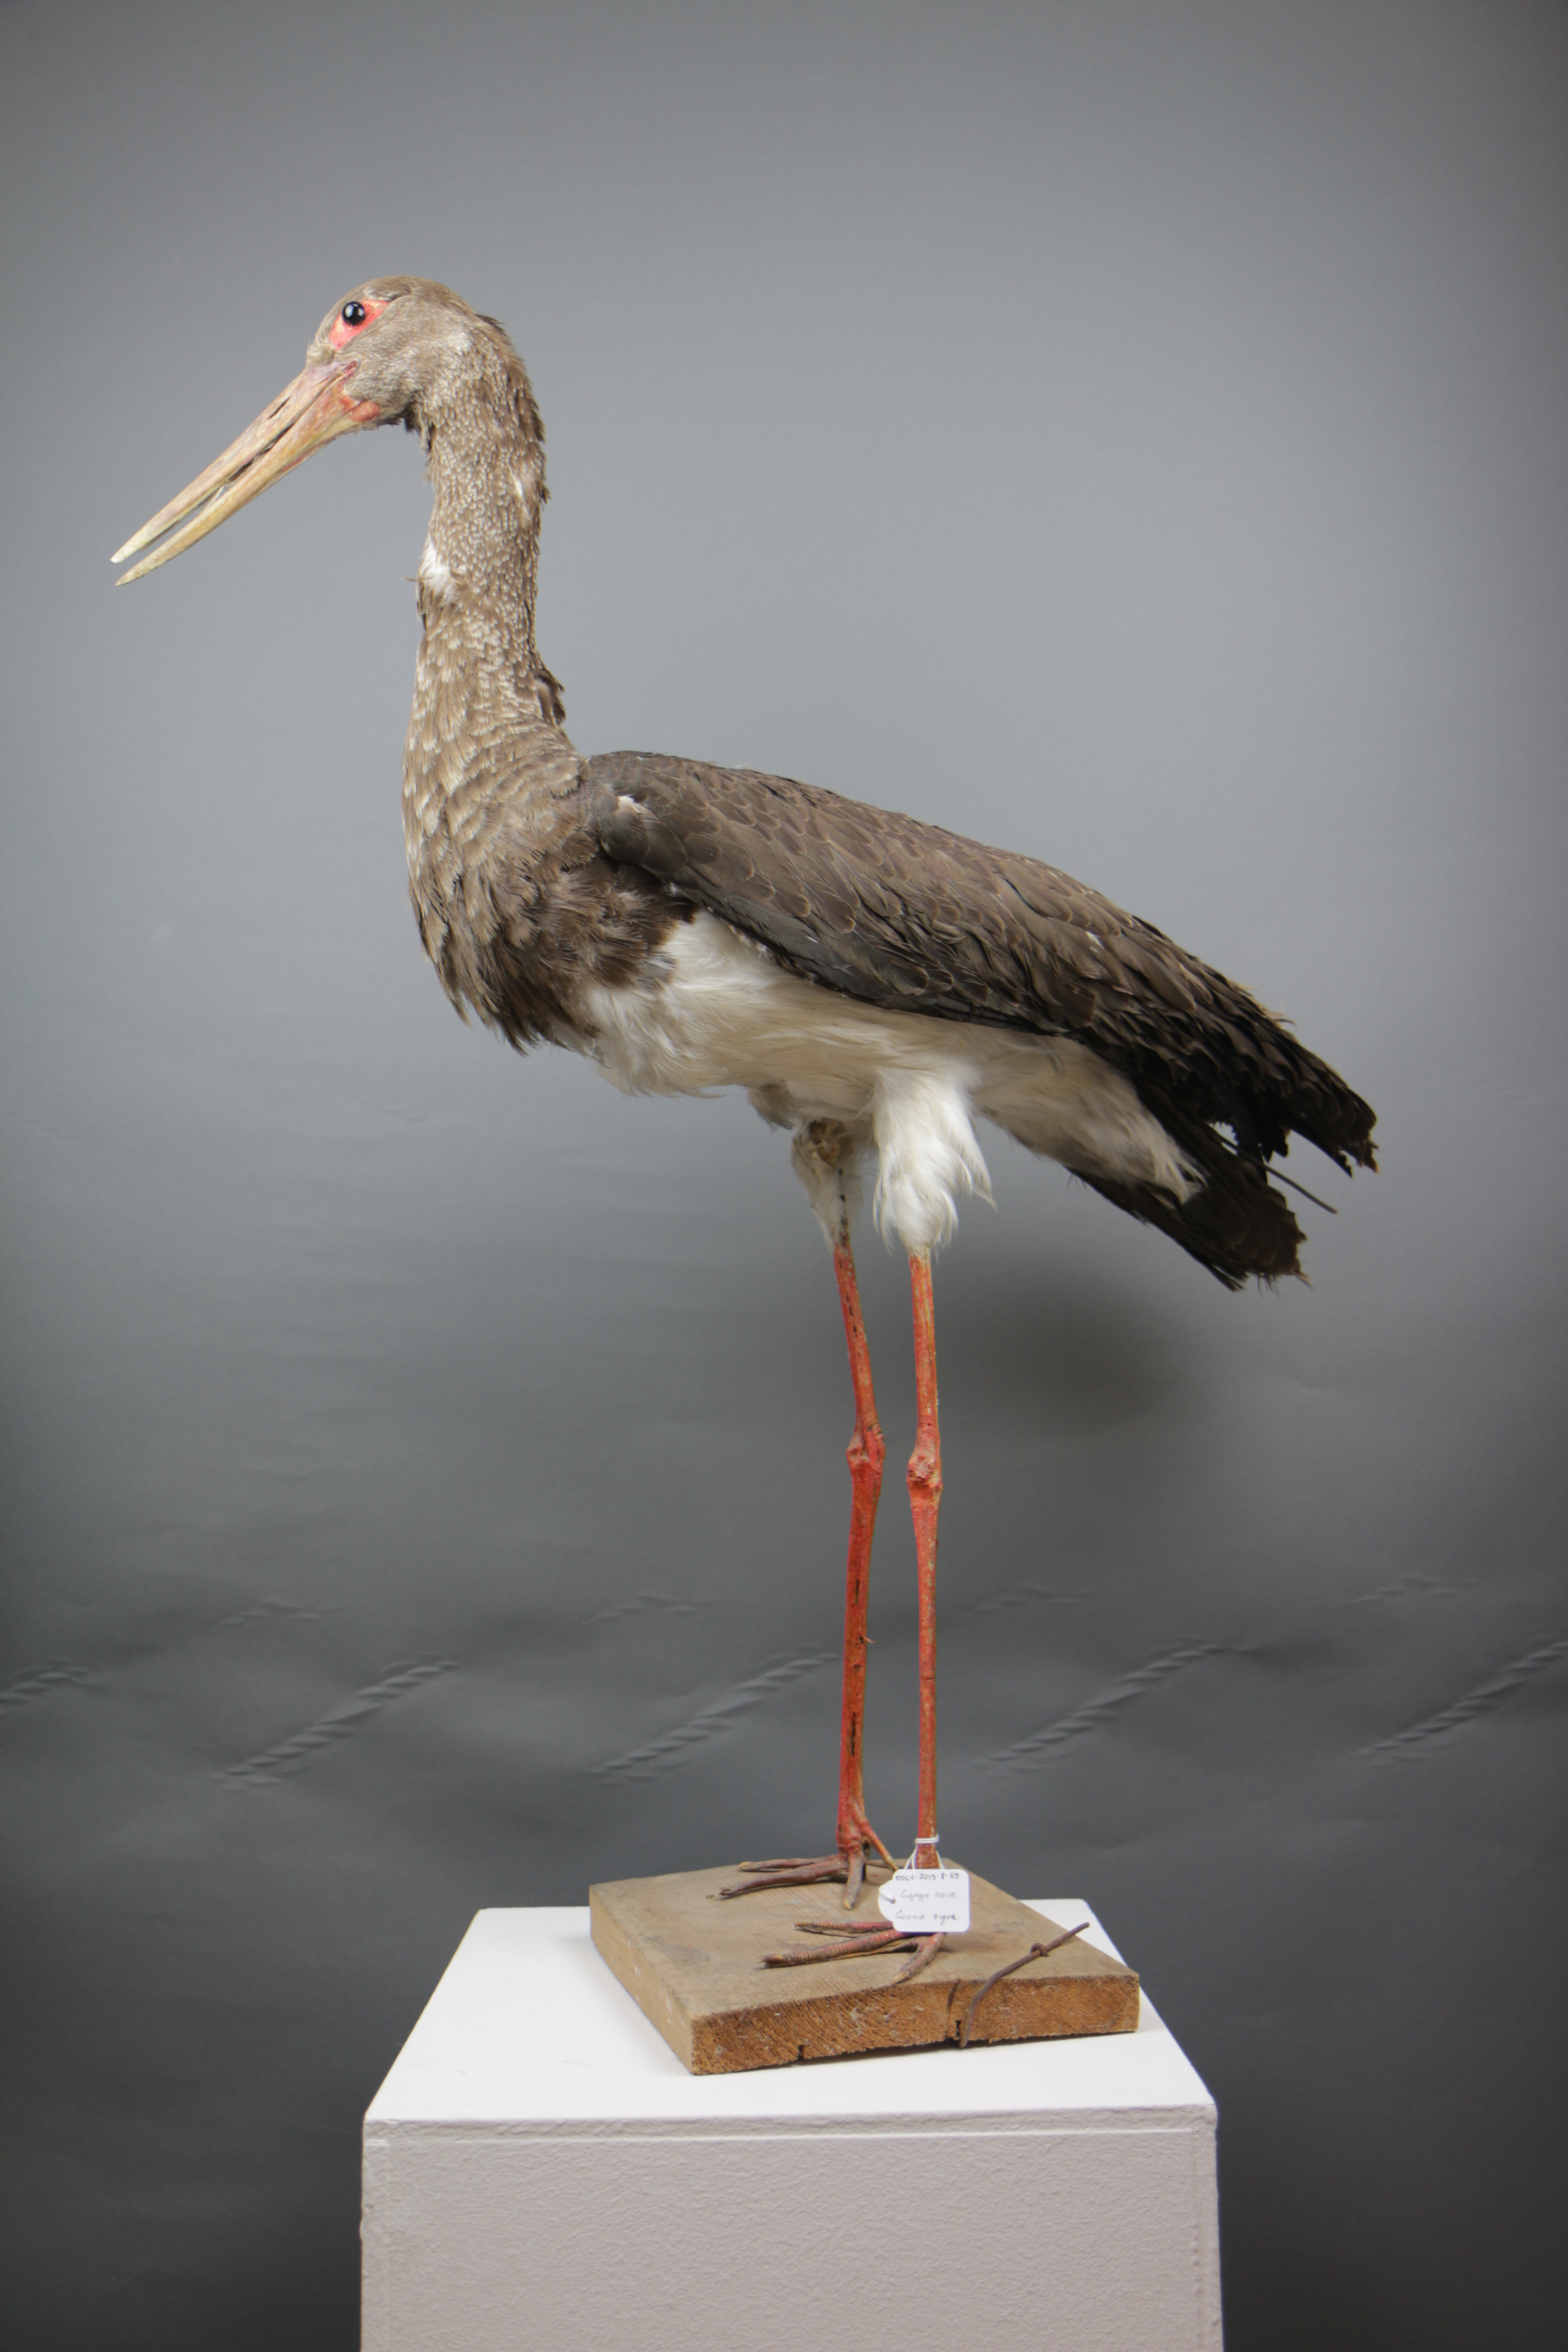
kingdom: Animalia
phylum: Chordata
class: Aves
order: Ciconiiformes
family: Ciconiidae
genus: Ciconia
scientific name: Ciconia nigra
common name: Black stork
